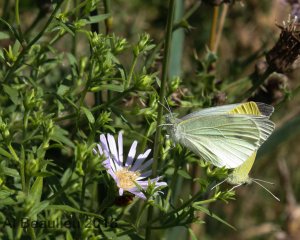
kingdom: Animalia
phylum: Arthropoda
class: Insecta
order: Lepidoptera
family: Pieridae
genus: Pieris
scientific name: Pieris rapae
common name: Cabbage White
